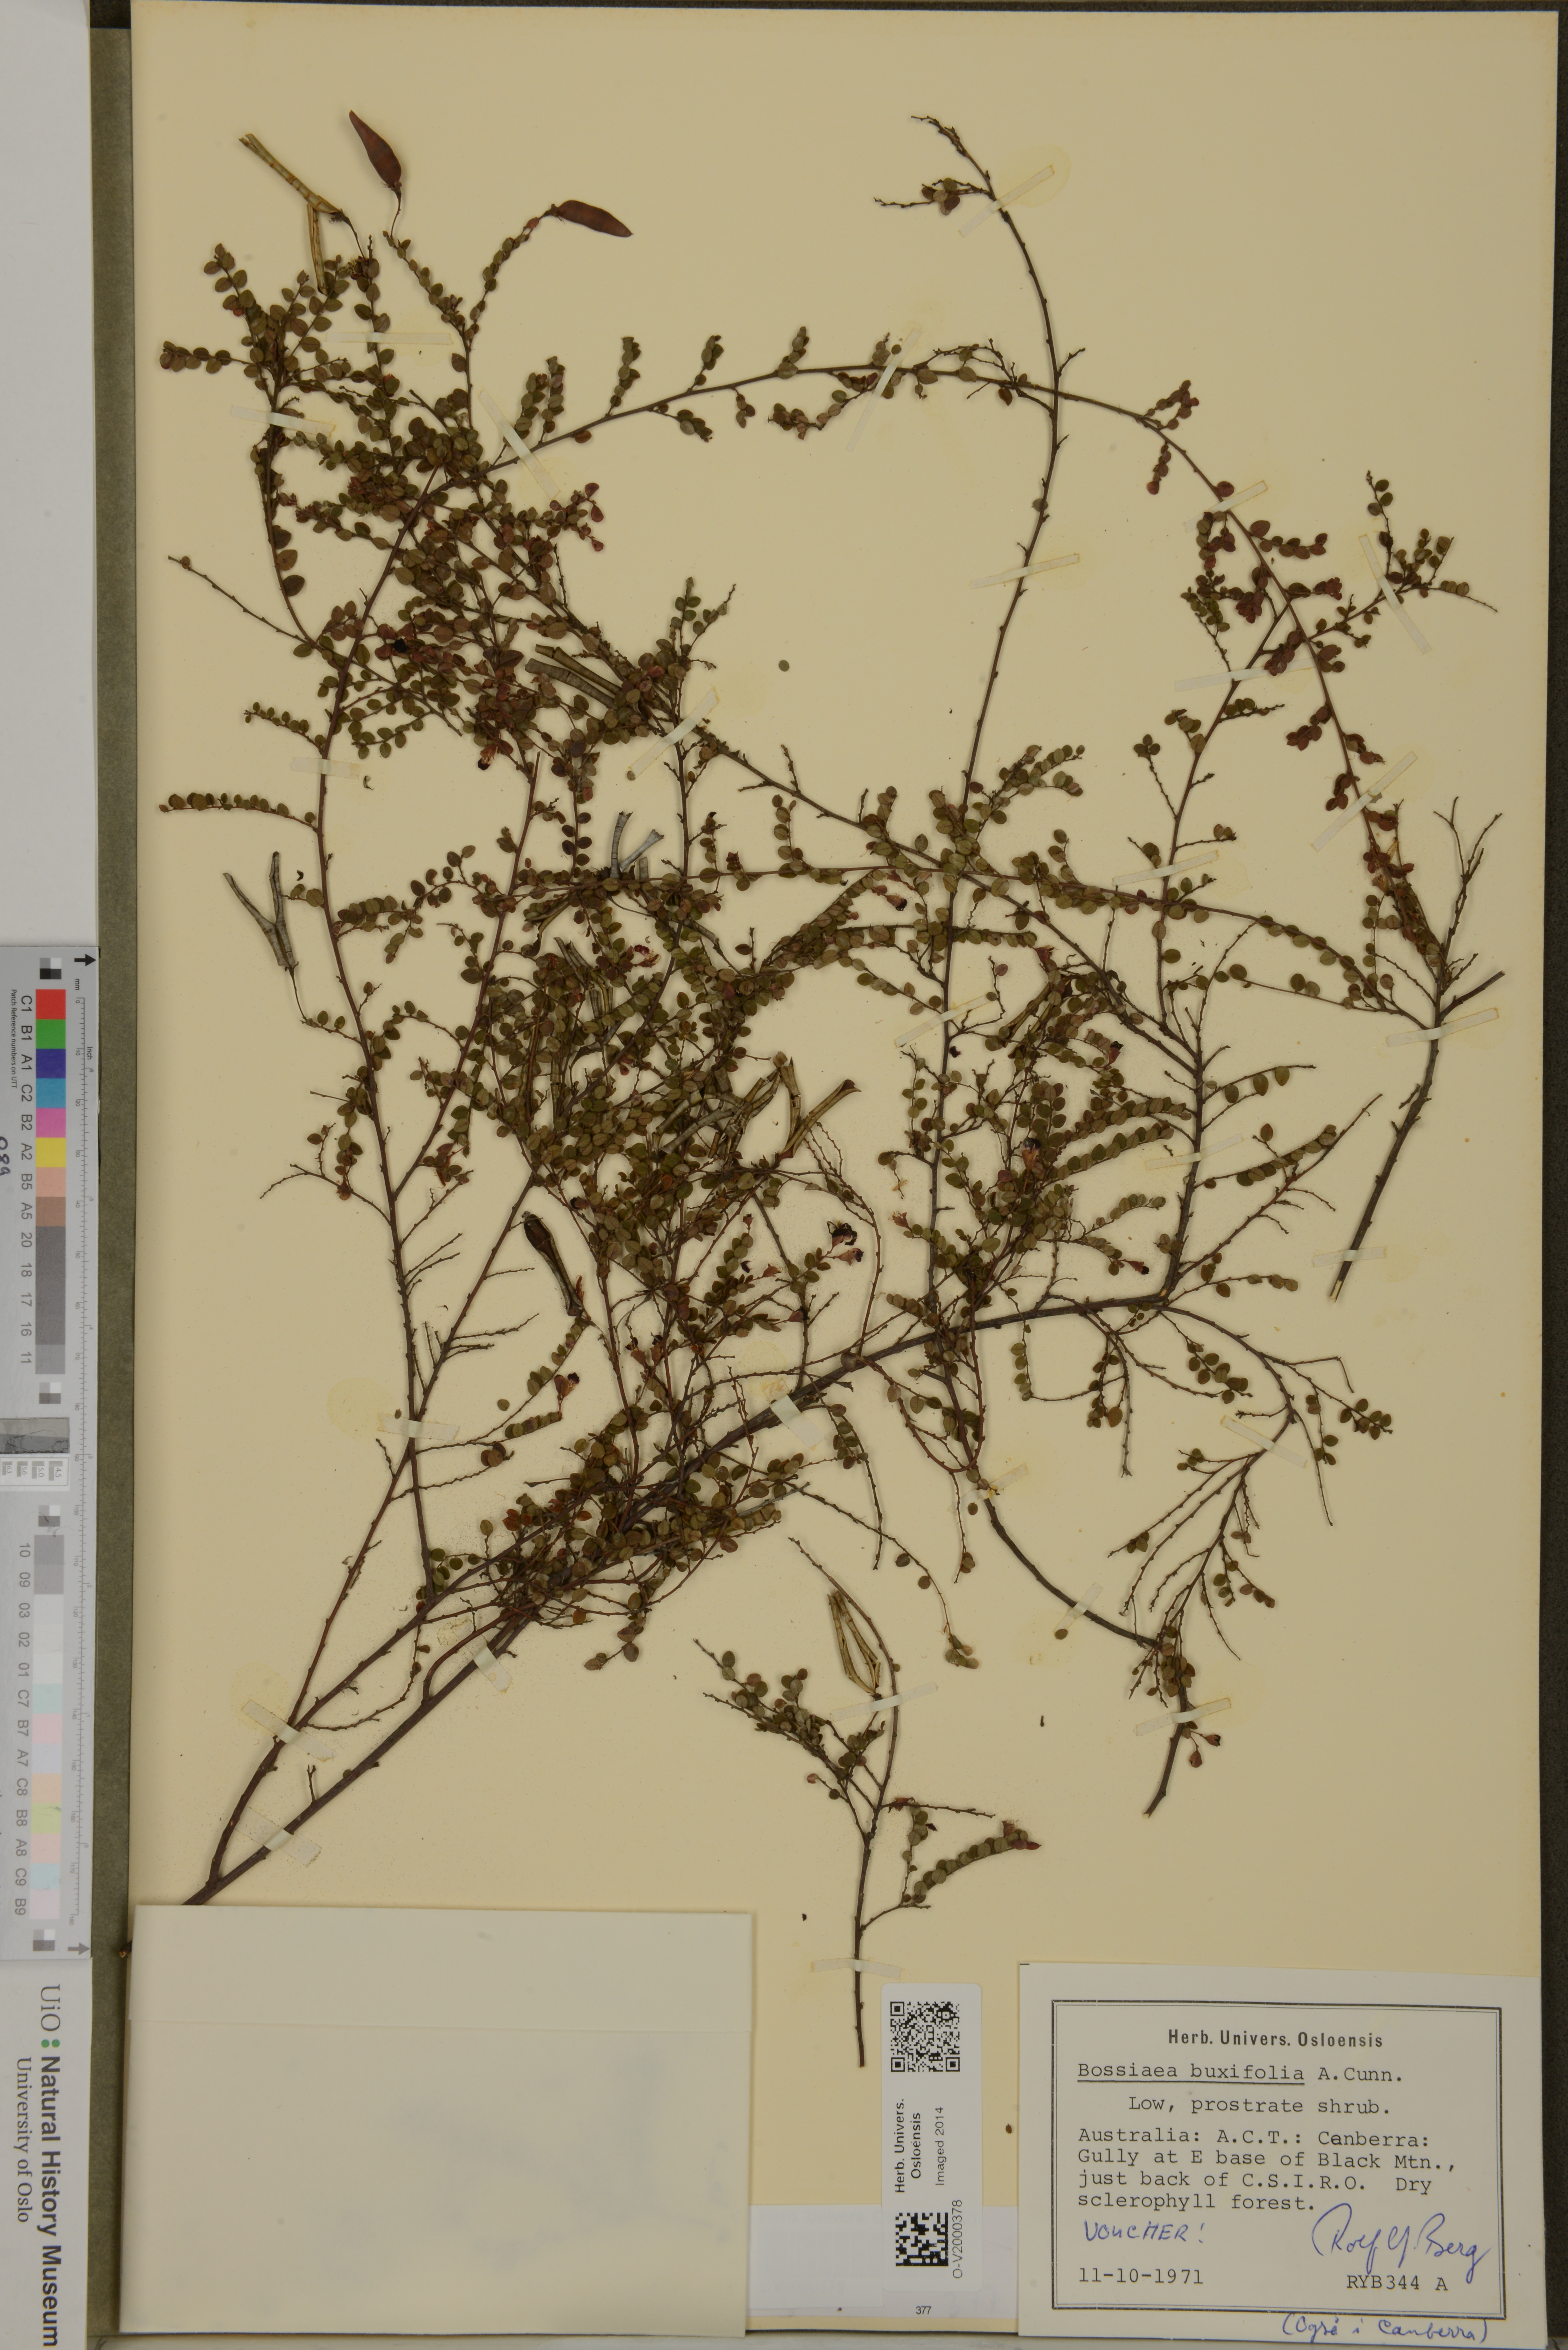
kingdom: Plantae
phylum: Tracheophyta
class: Magnoliopsida
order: Fabales
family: Fabaceae
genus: Bossiaea
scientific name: Bossiaea buxifolia
